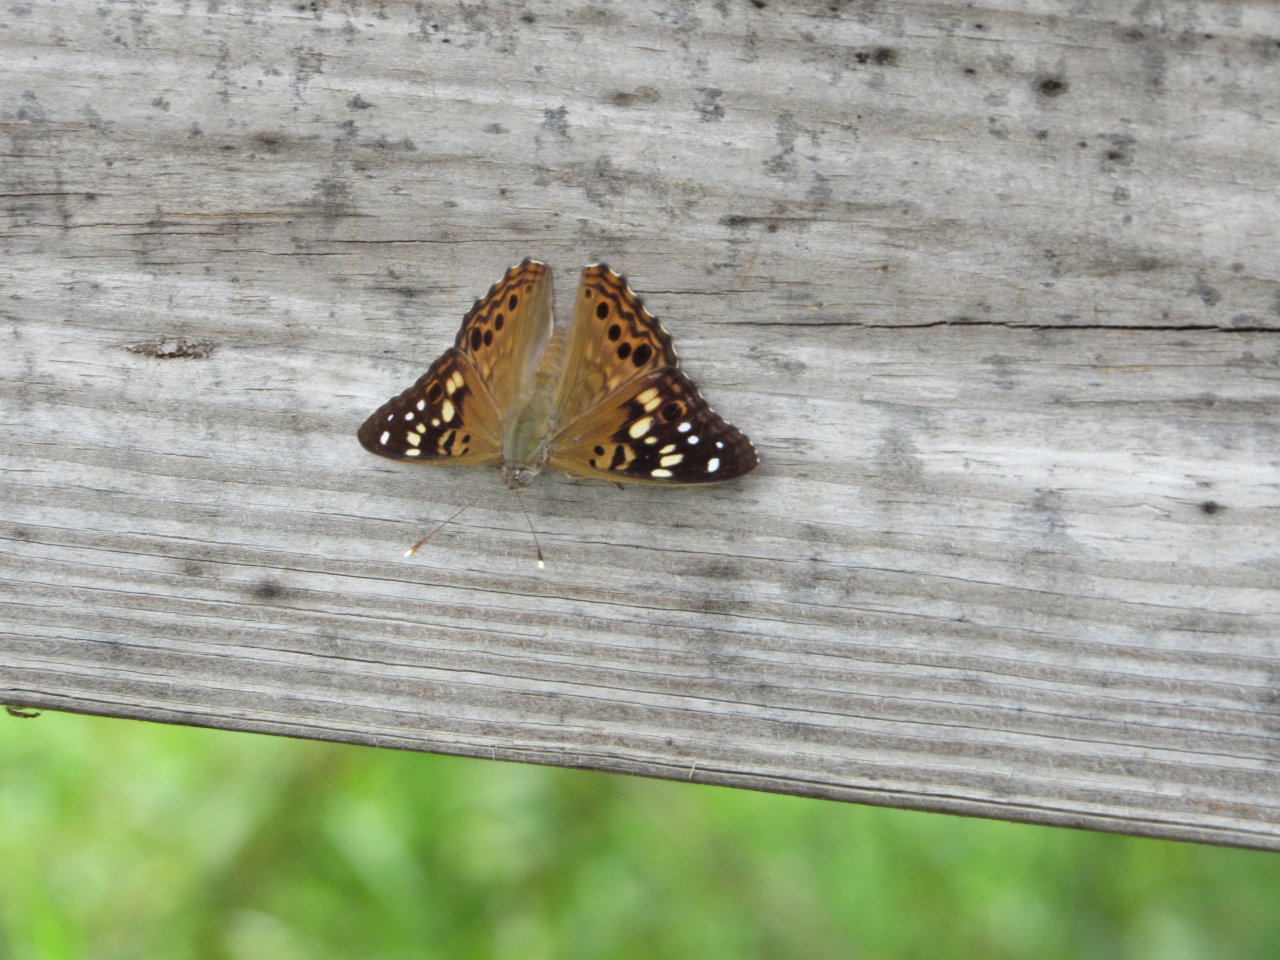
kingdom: Animalia
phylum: Arthropoda
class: Insecta
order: Lepidoptera
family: Nymphalidae
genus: Asterocampa
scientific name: Asterocampa celtis
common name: Hackberry Emperor
